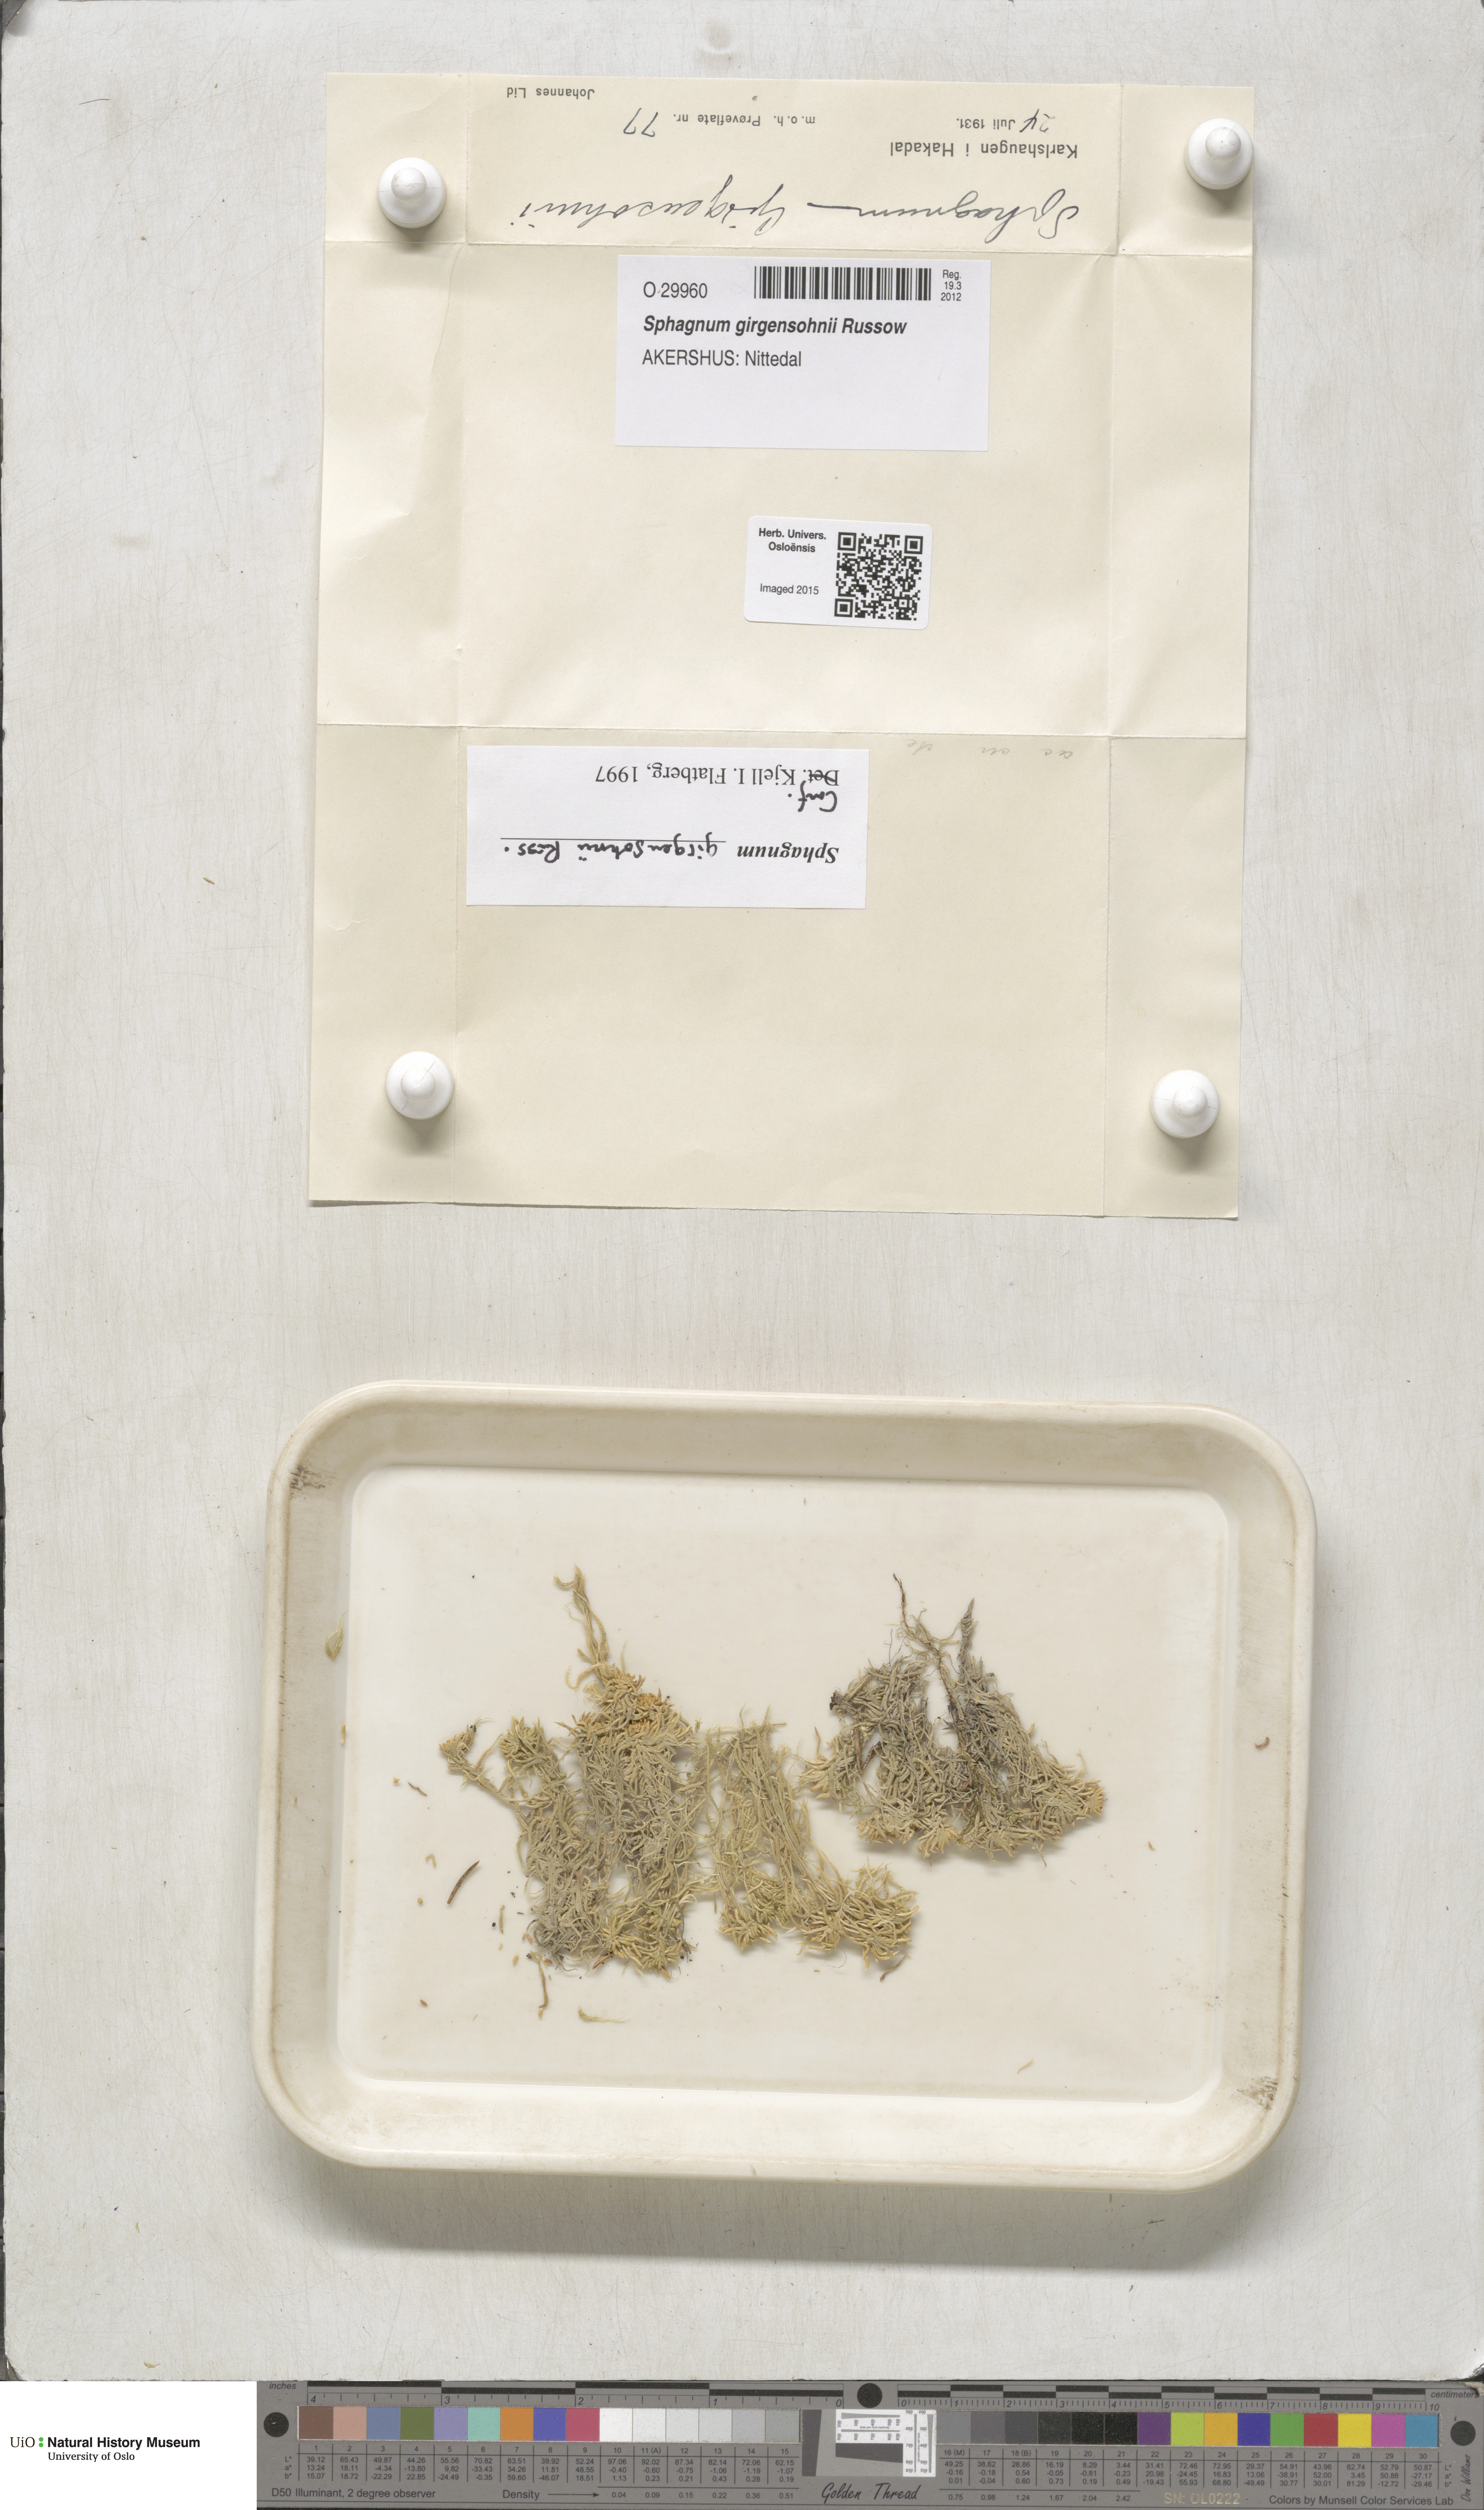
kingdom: Plantae
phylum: Bryophyta
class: Sphagnopsida
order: Sphagnales
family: Sphagnaceae
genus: Sphagnum
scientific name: Sphagnum girgensohnii
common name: Girgensohn's peat moss
